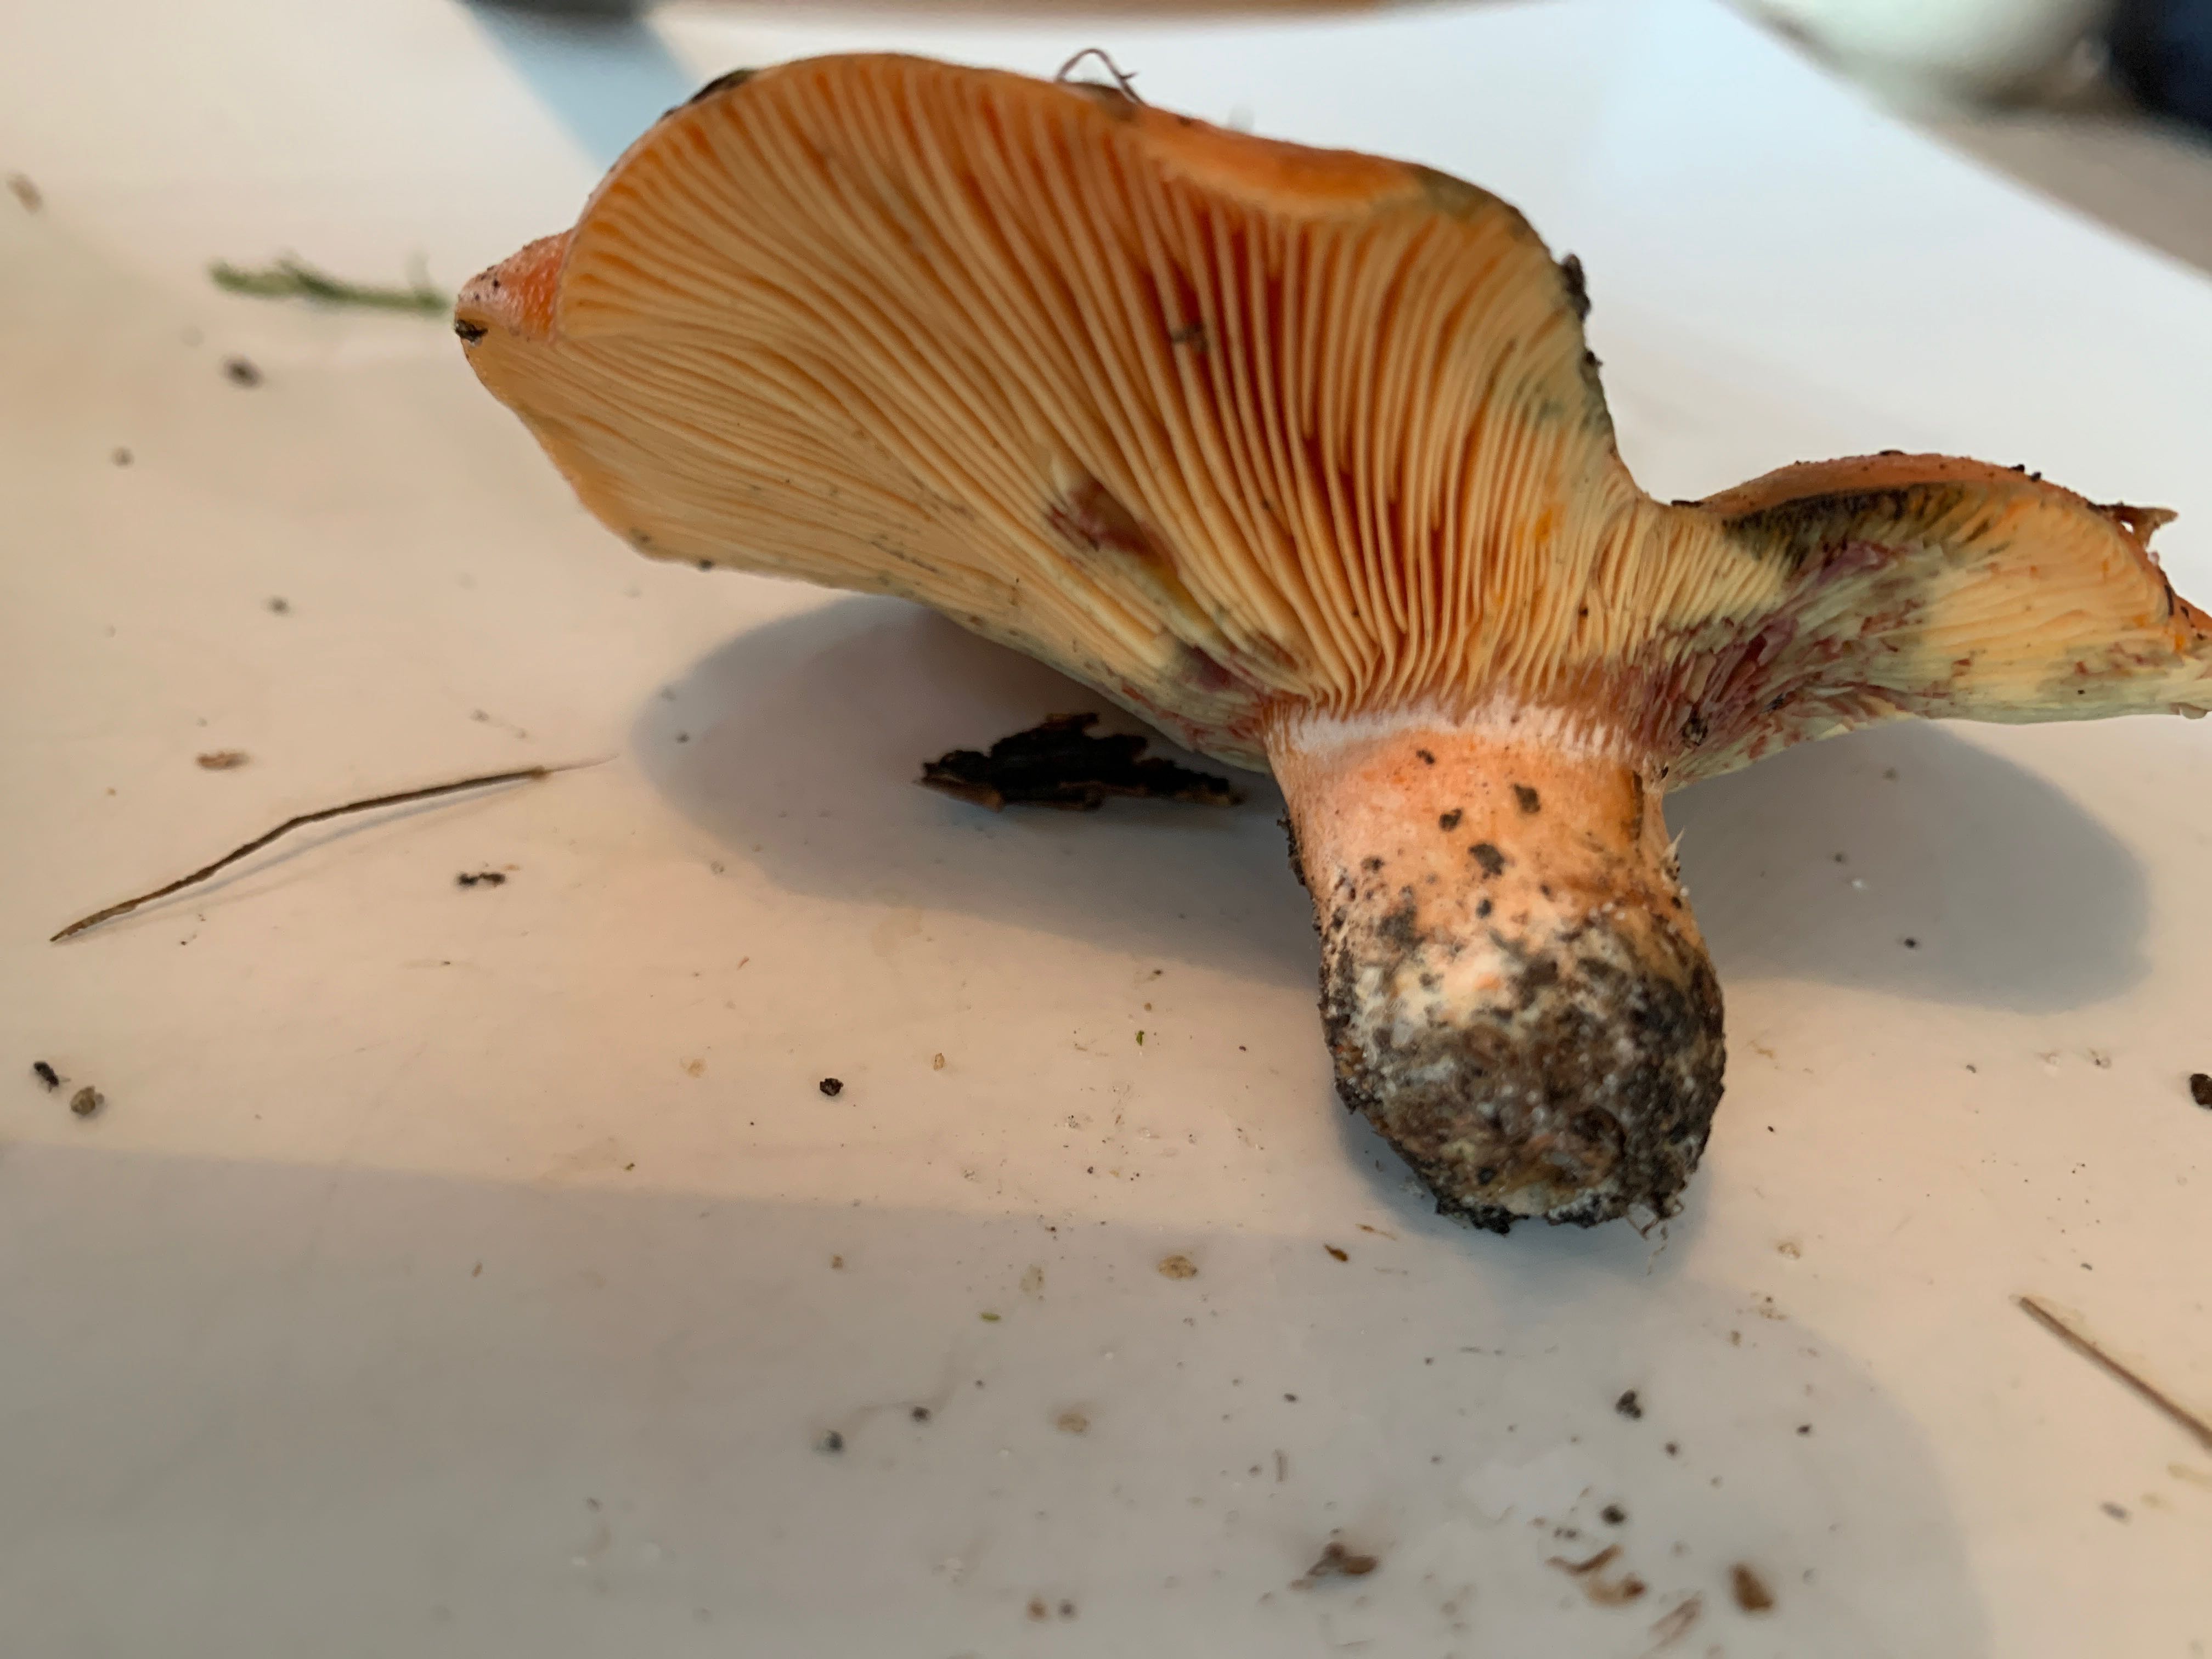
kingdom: Fungi
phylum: Basidiomycota
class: Agaricomycetes
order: Russulales
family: Russulaceae
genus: Lactarius
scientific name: Lactarius deterrimus
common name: gran-mælkehat
